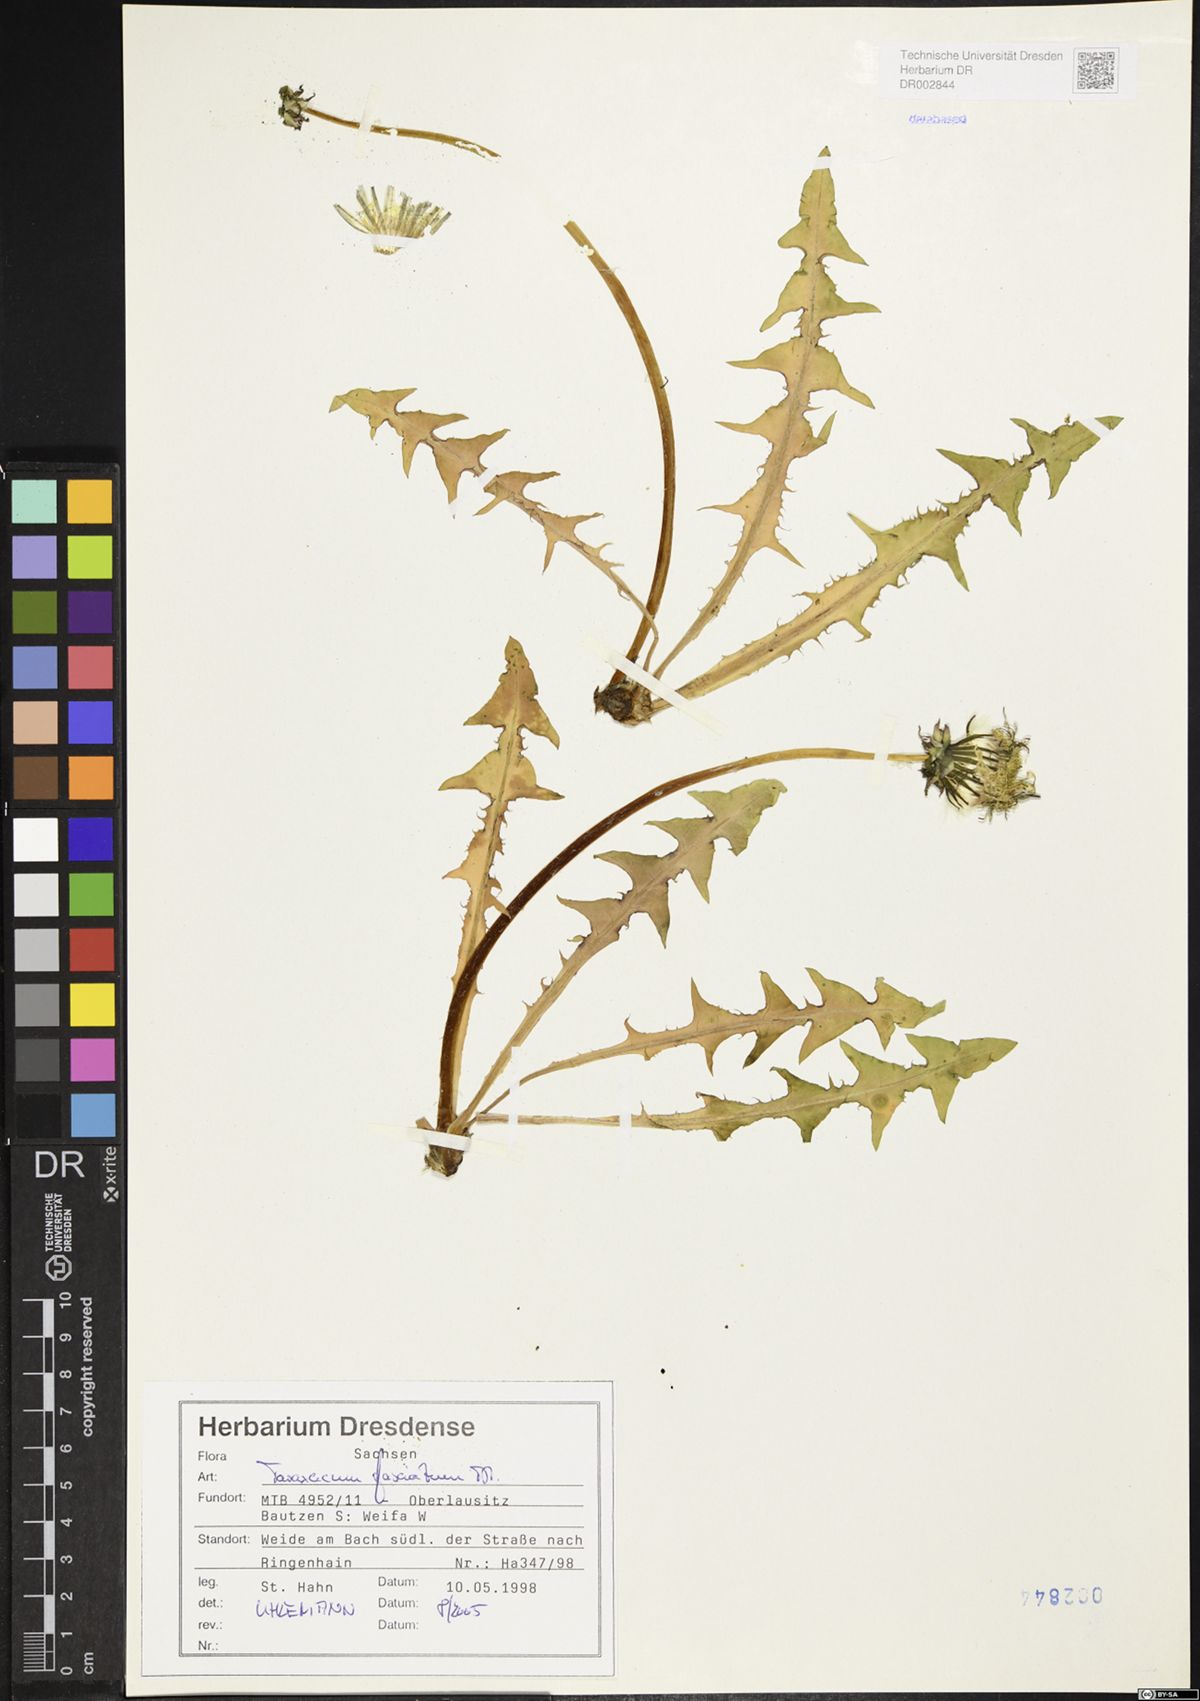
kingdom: Plantae
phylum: Tracheophyta
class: Magnoliopsida
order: Asterales
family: Asteraceae
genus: Taraxacum
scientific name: Taraxacum fasciatum
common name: Dense-bracted dandelion
